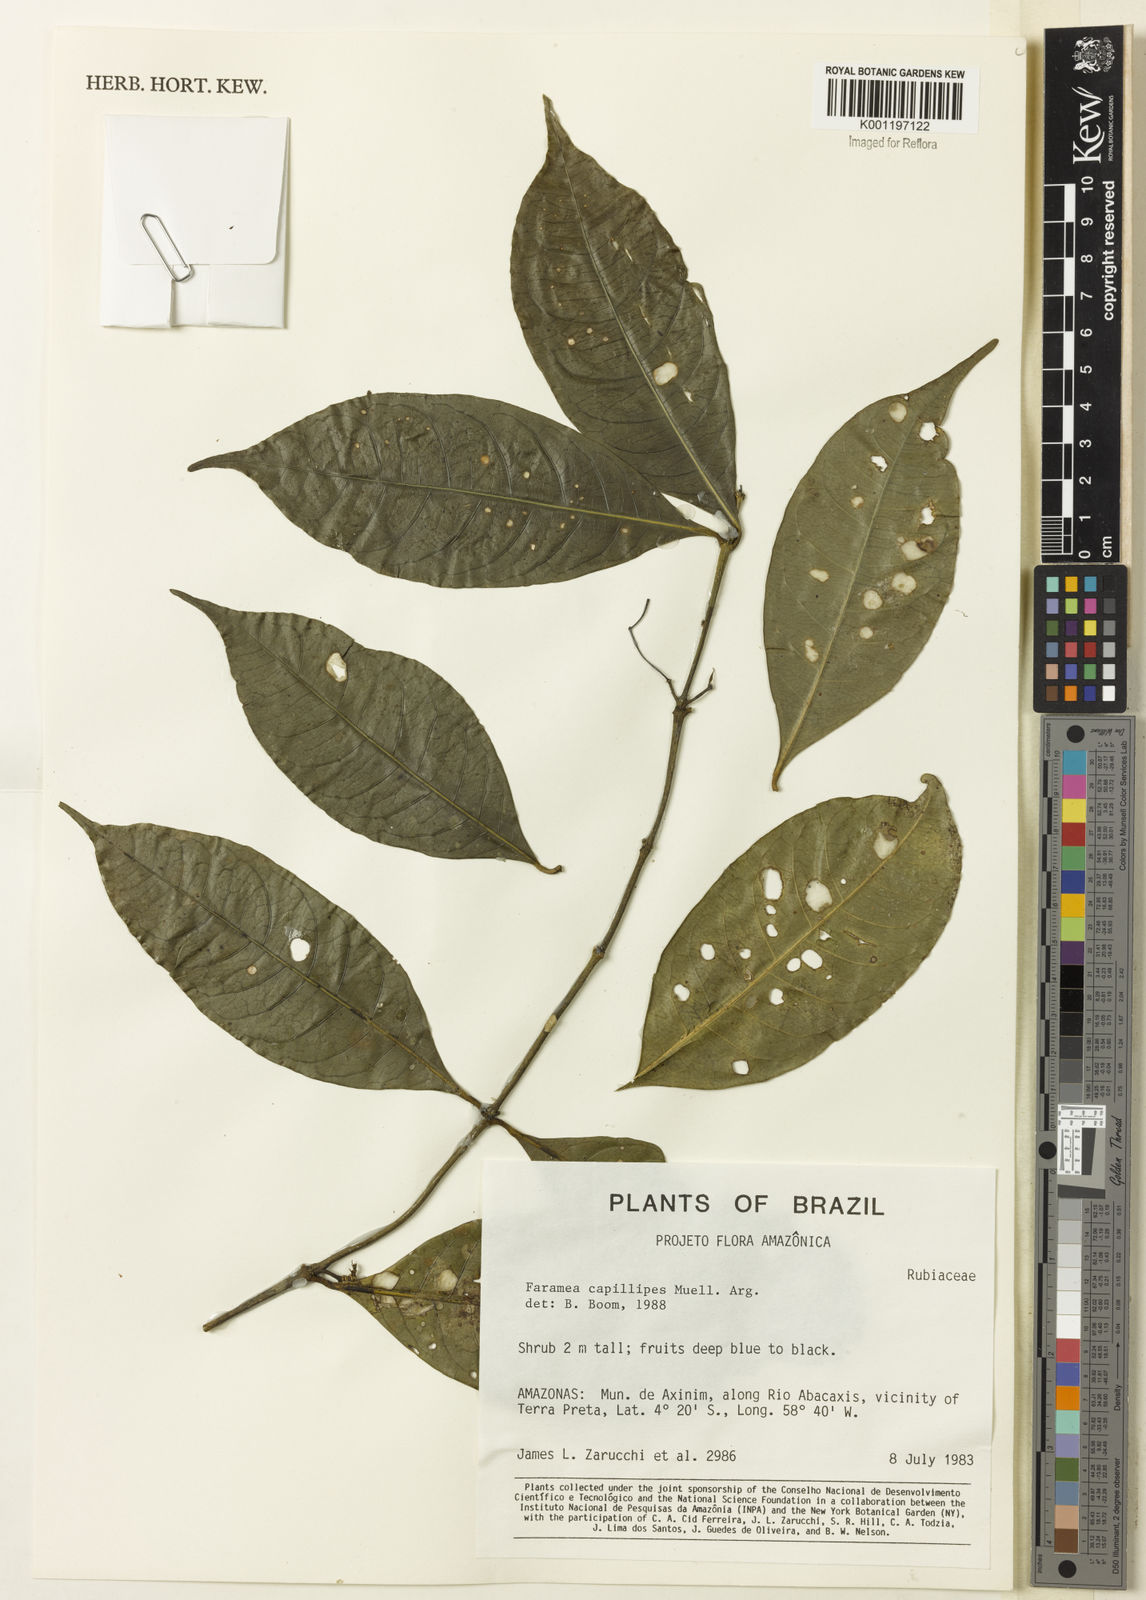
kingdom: Plantae
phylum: Tracheophyta
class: Magnoliopsida
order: Gentianales
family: Rubiaceae
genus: Faramea
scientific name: Faramea
